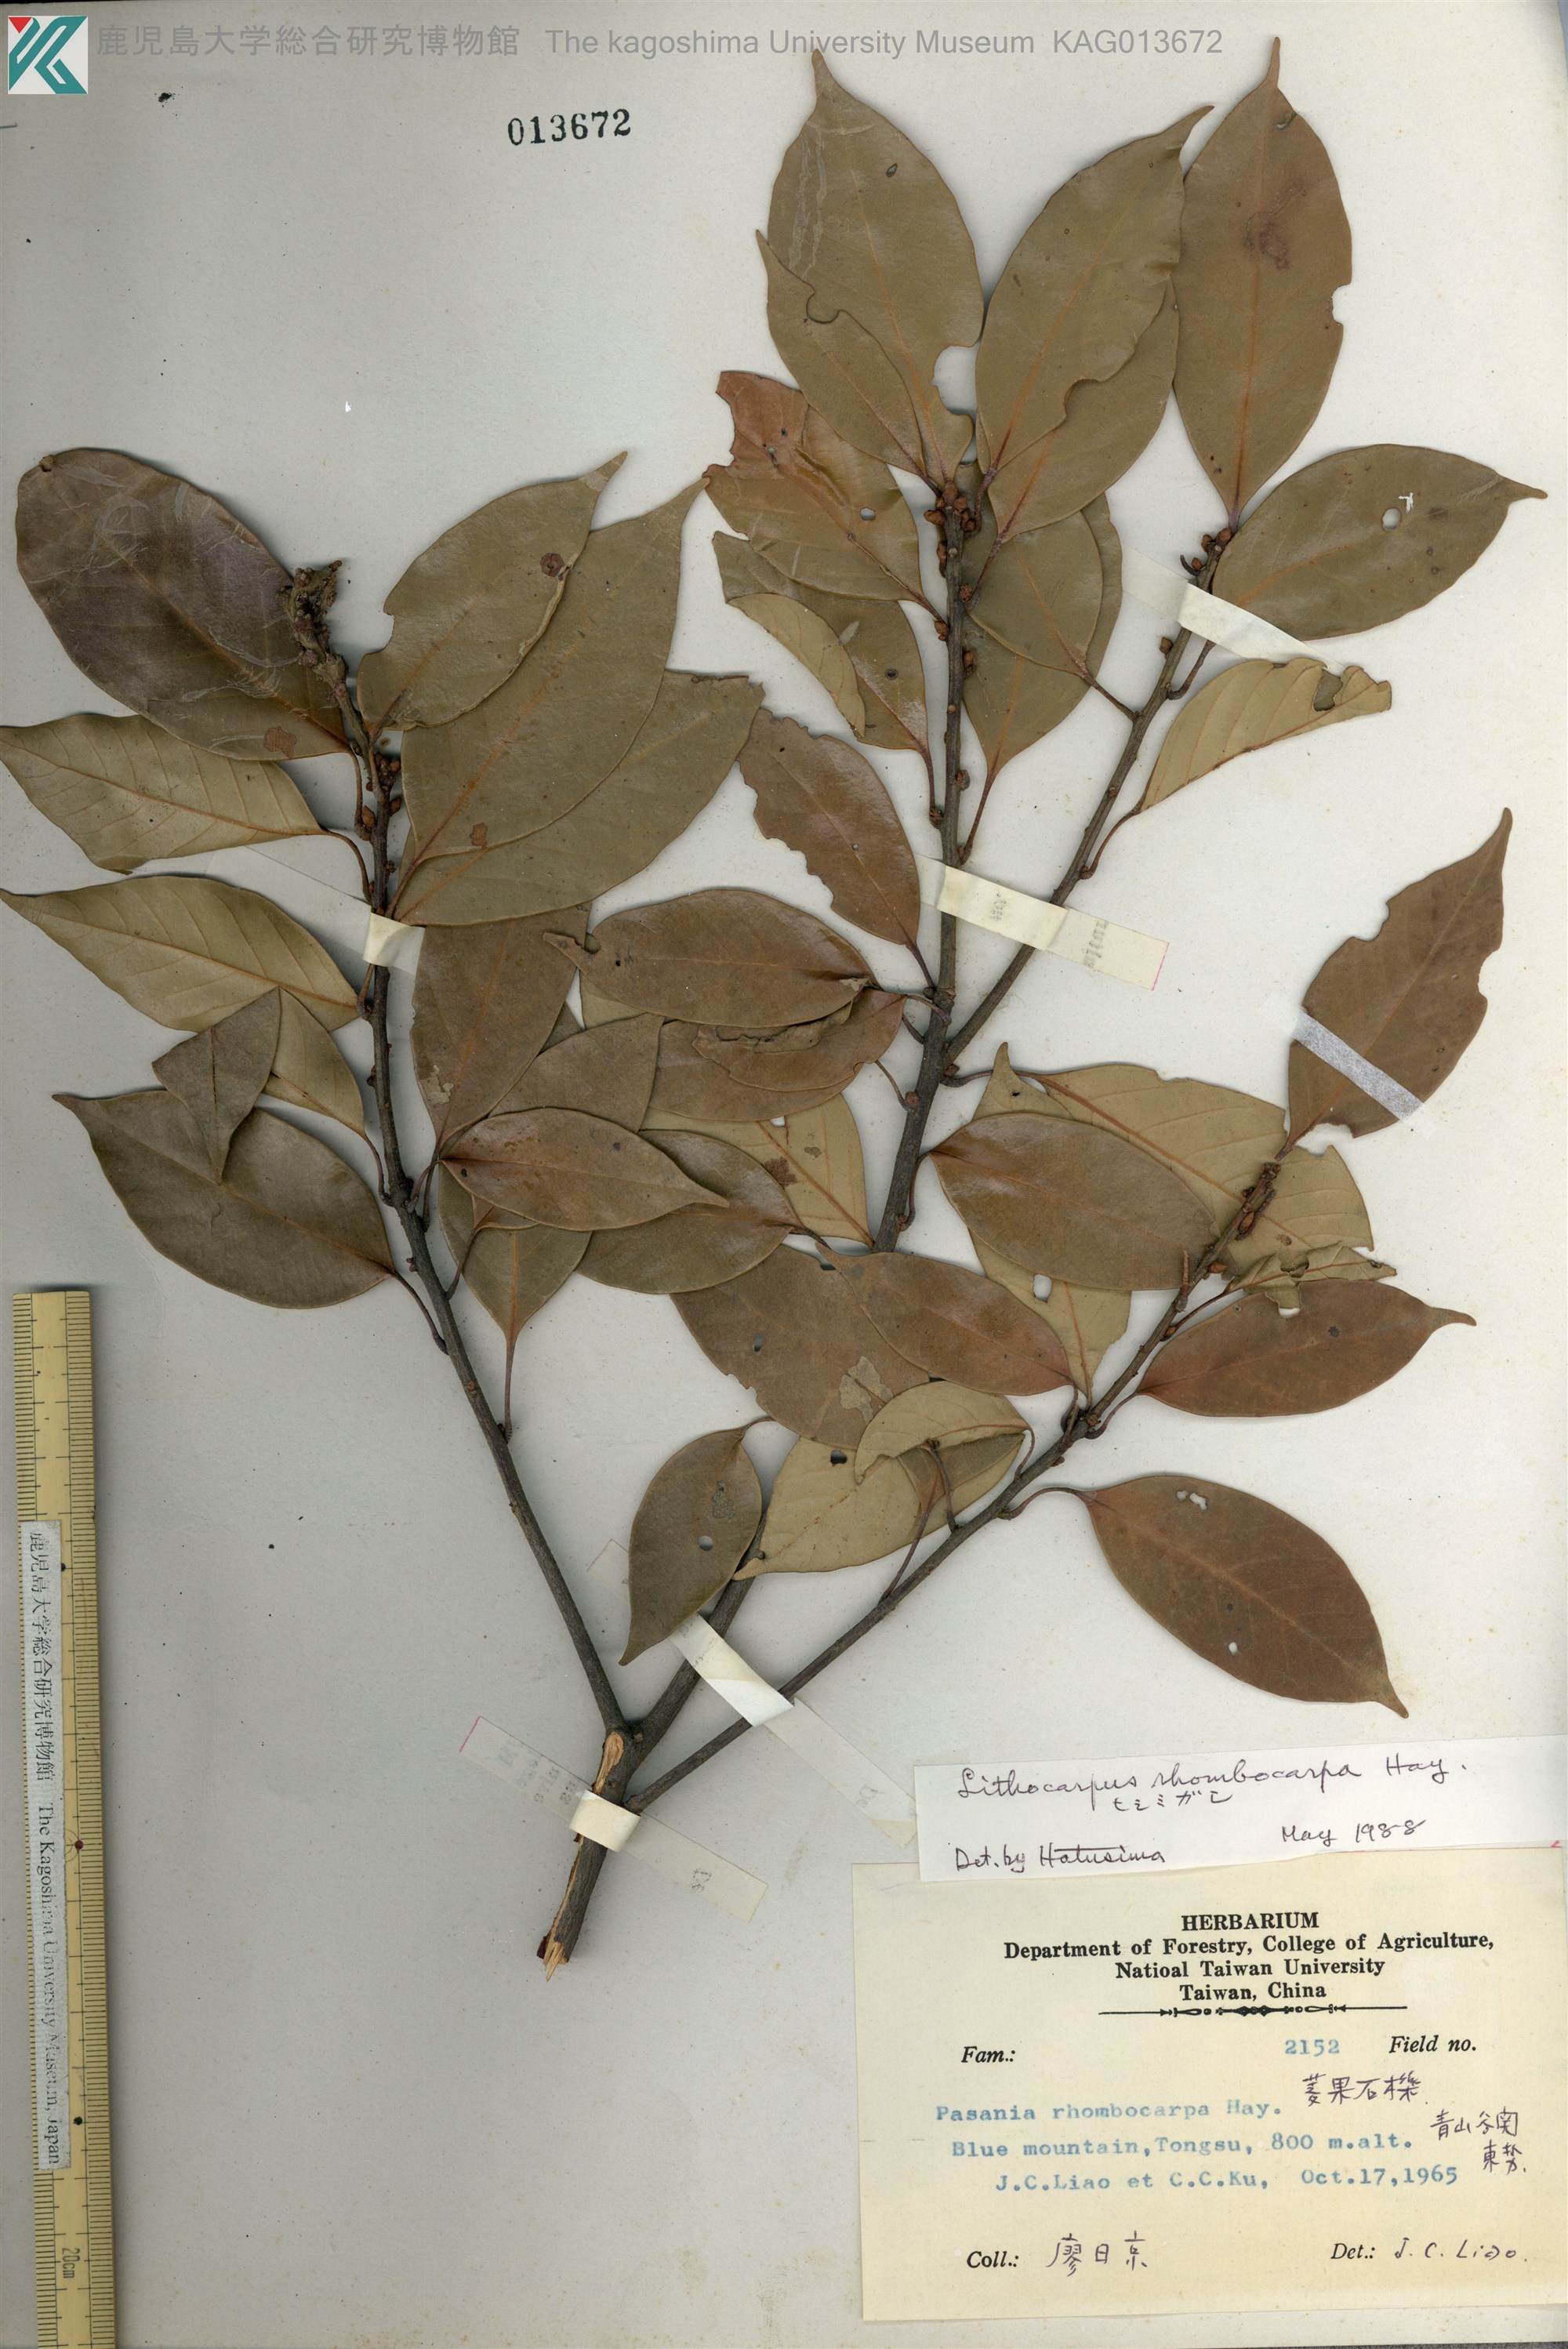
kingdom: Plantae
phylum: Tracheophyta
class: Magnoliopsida
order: Fagales
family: Fagaceae
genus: Lithocarpus
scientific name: Lithocarpus taitoensis
